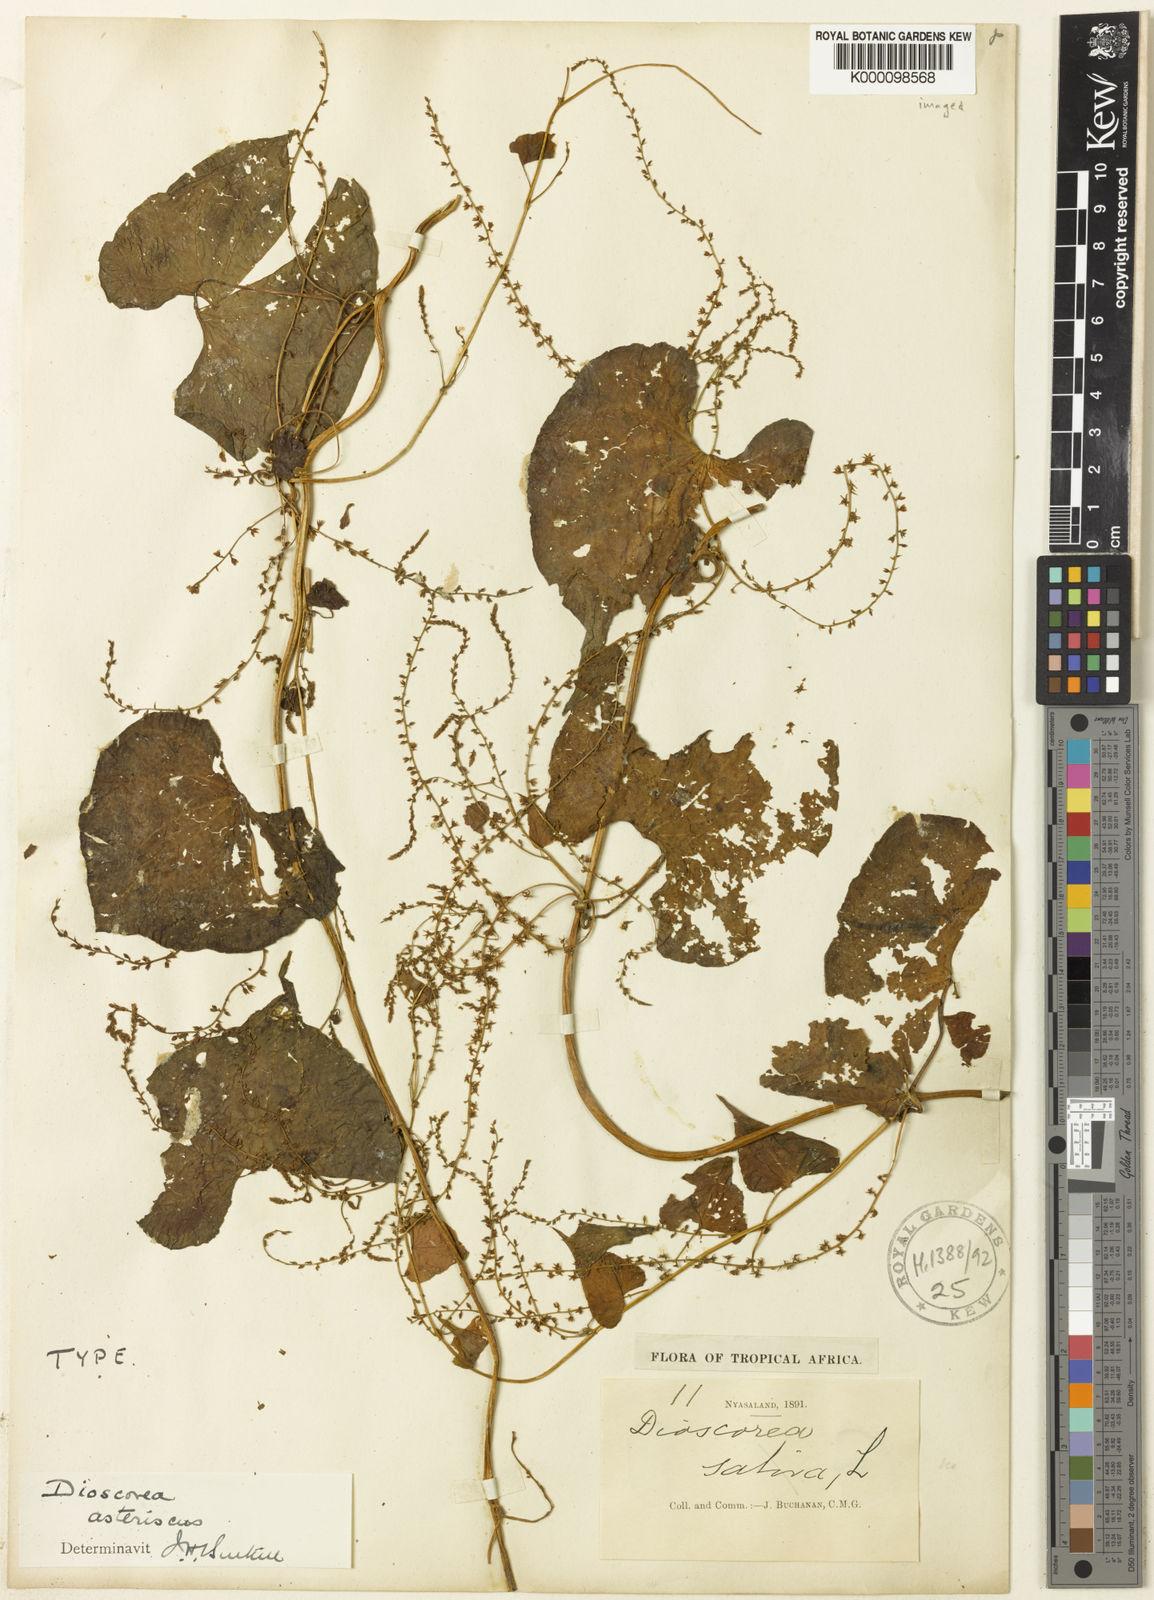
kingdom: Plantae
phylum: Tracheophyta
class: Liliopsida
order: Dioscoreales
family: Dioscoreaceae
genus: Dioscorea
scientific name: Dioscorea asteriscus
